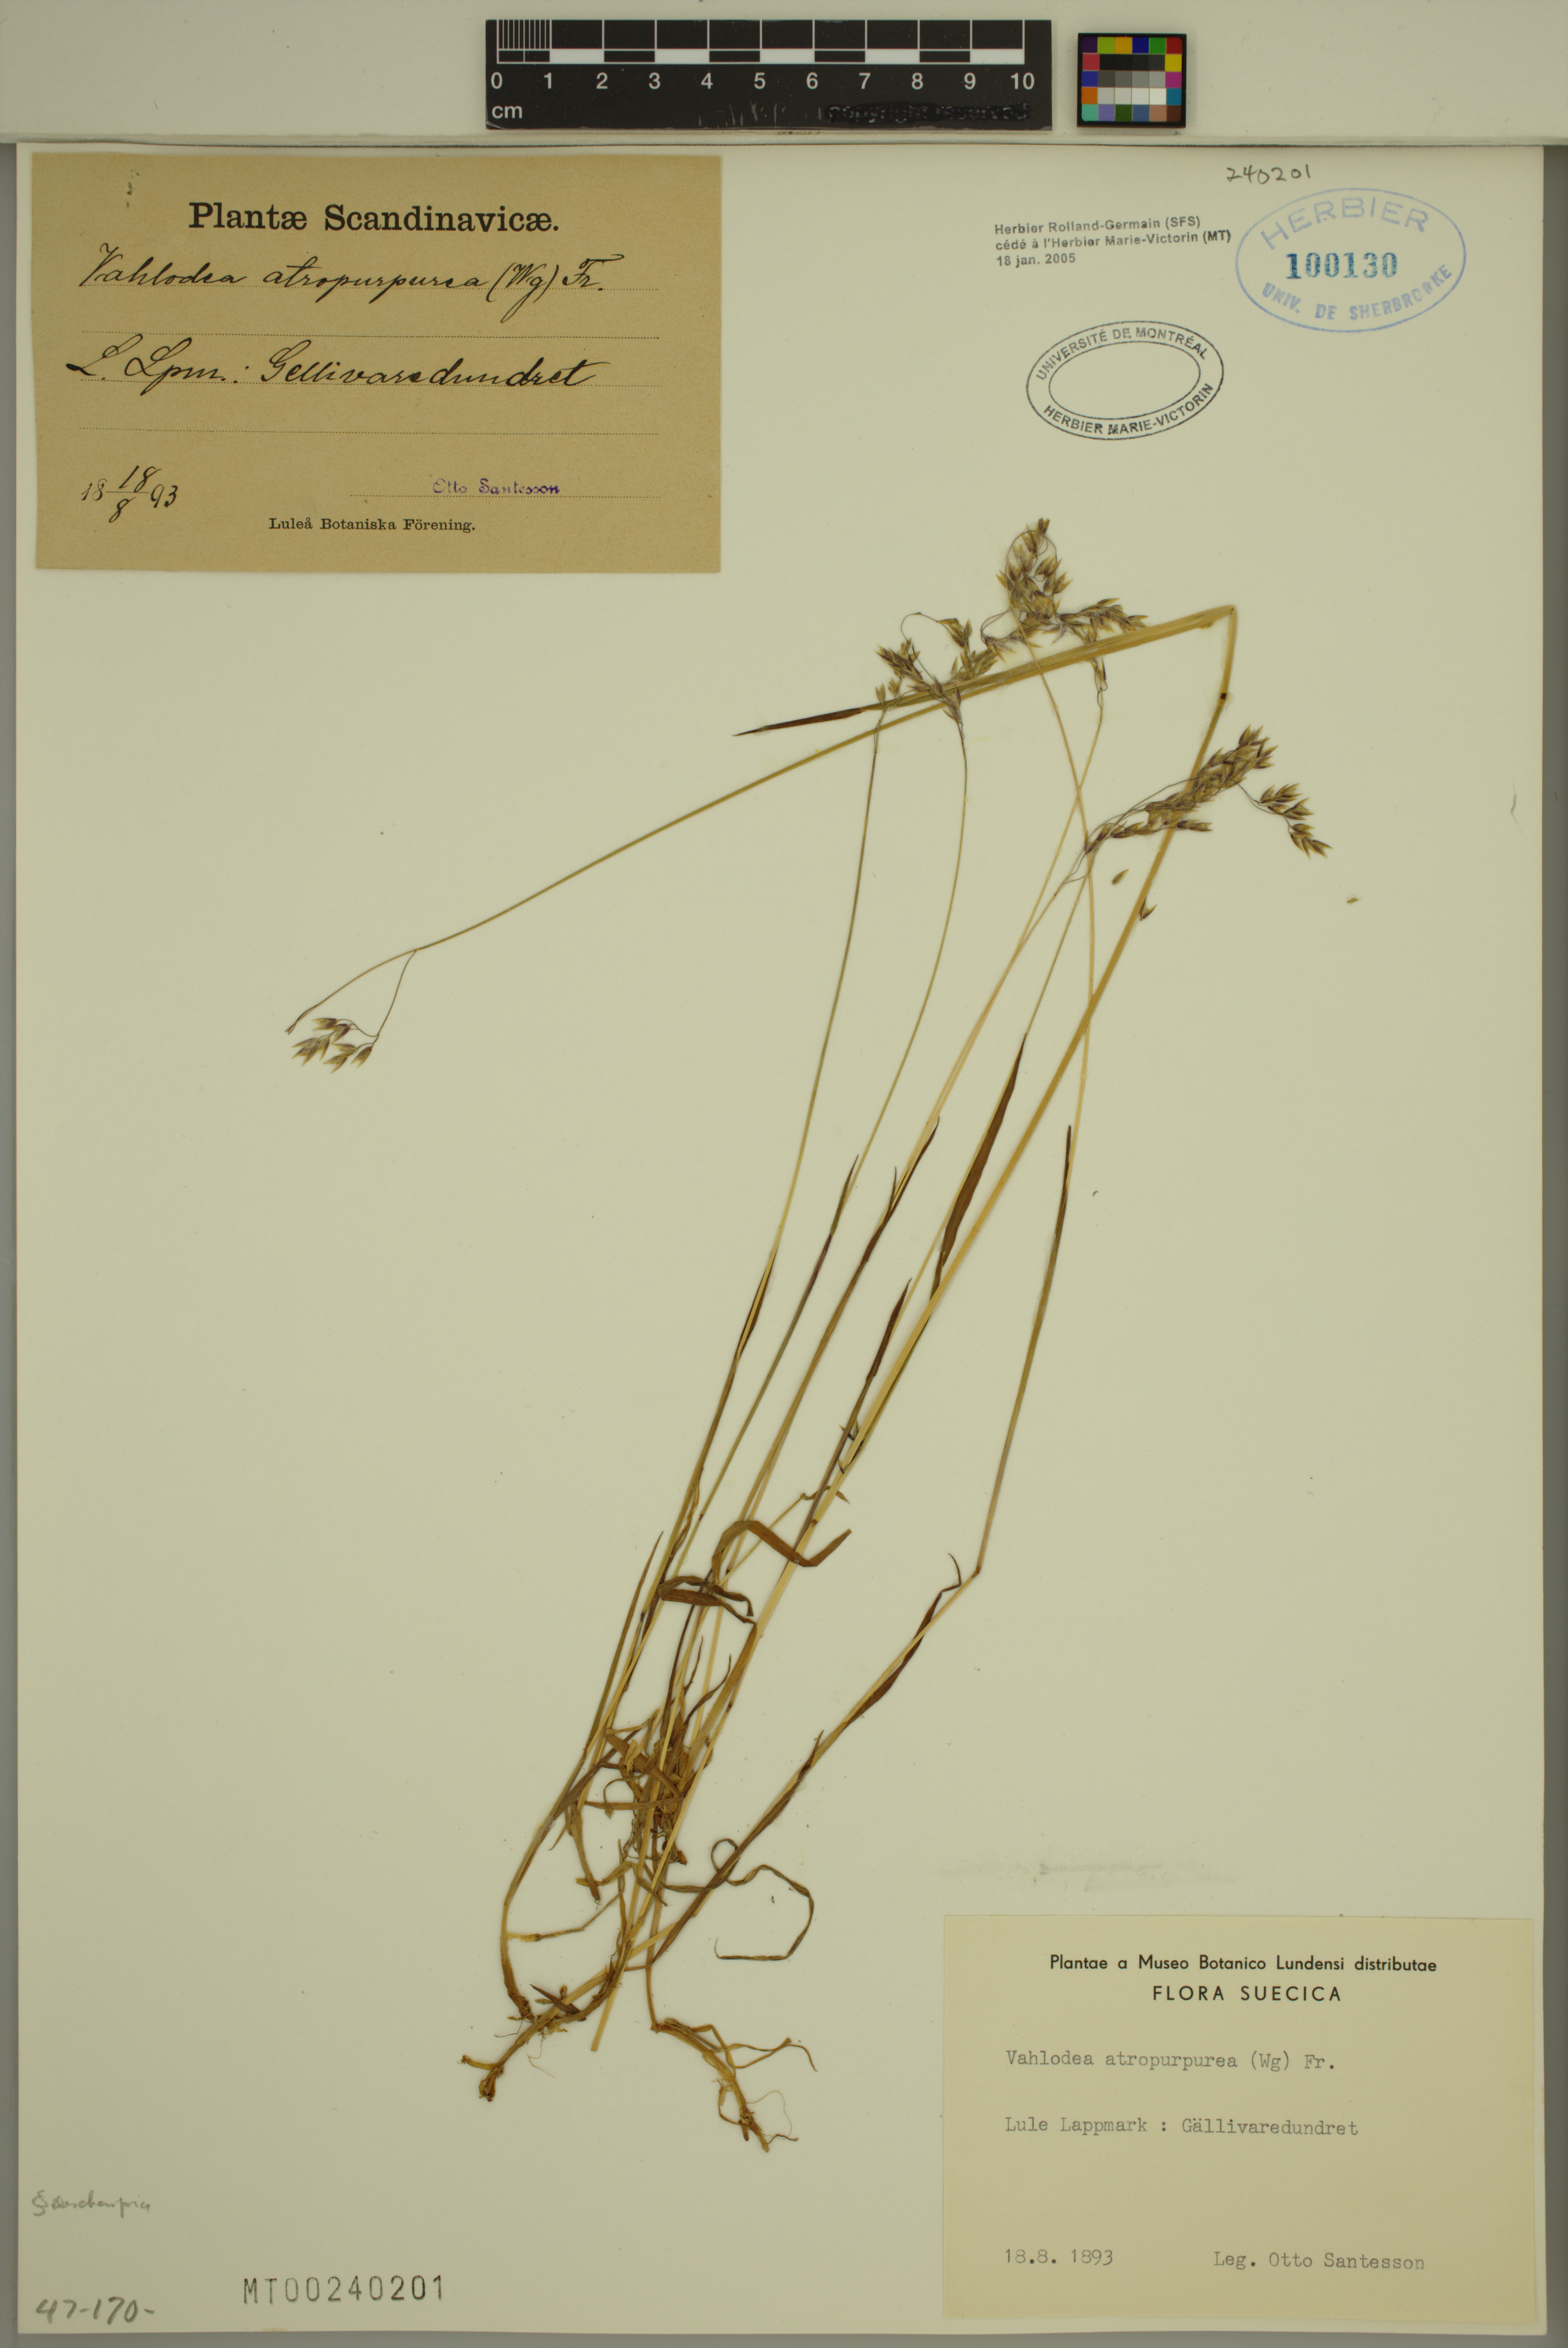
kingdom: Plantae
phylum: Tracheophyta
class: Liliopsida
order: Poales
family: Poaceae
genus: Vahlodea
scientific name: Vahlodea atropurpurea
